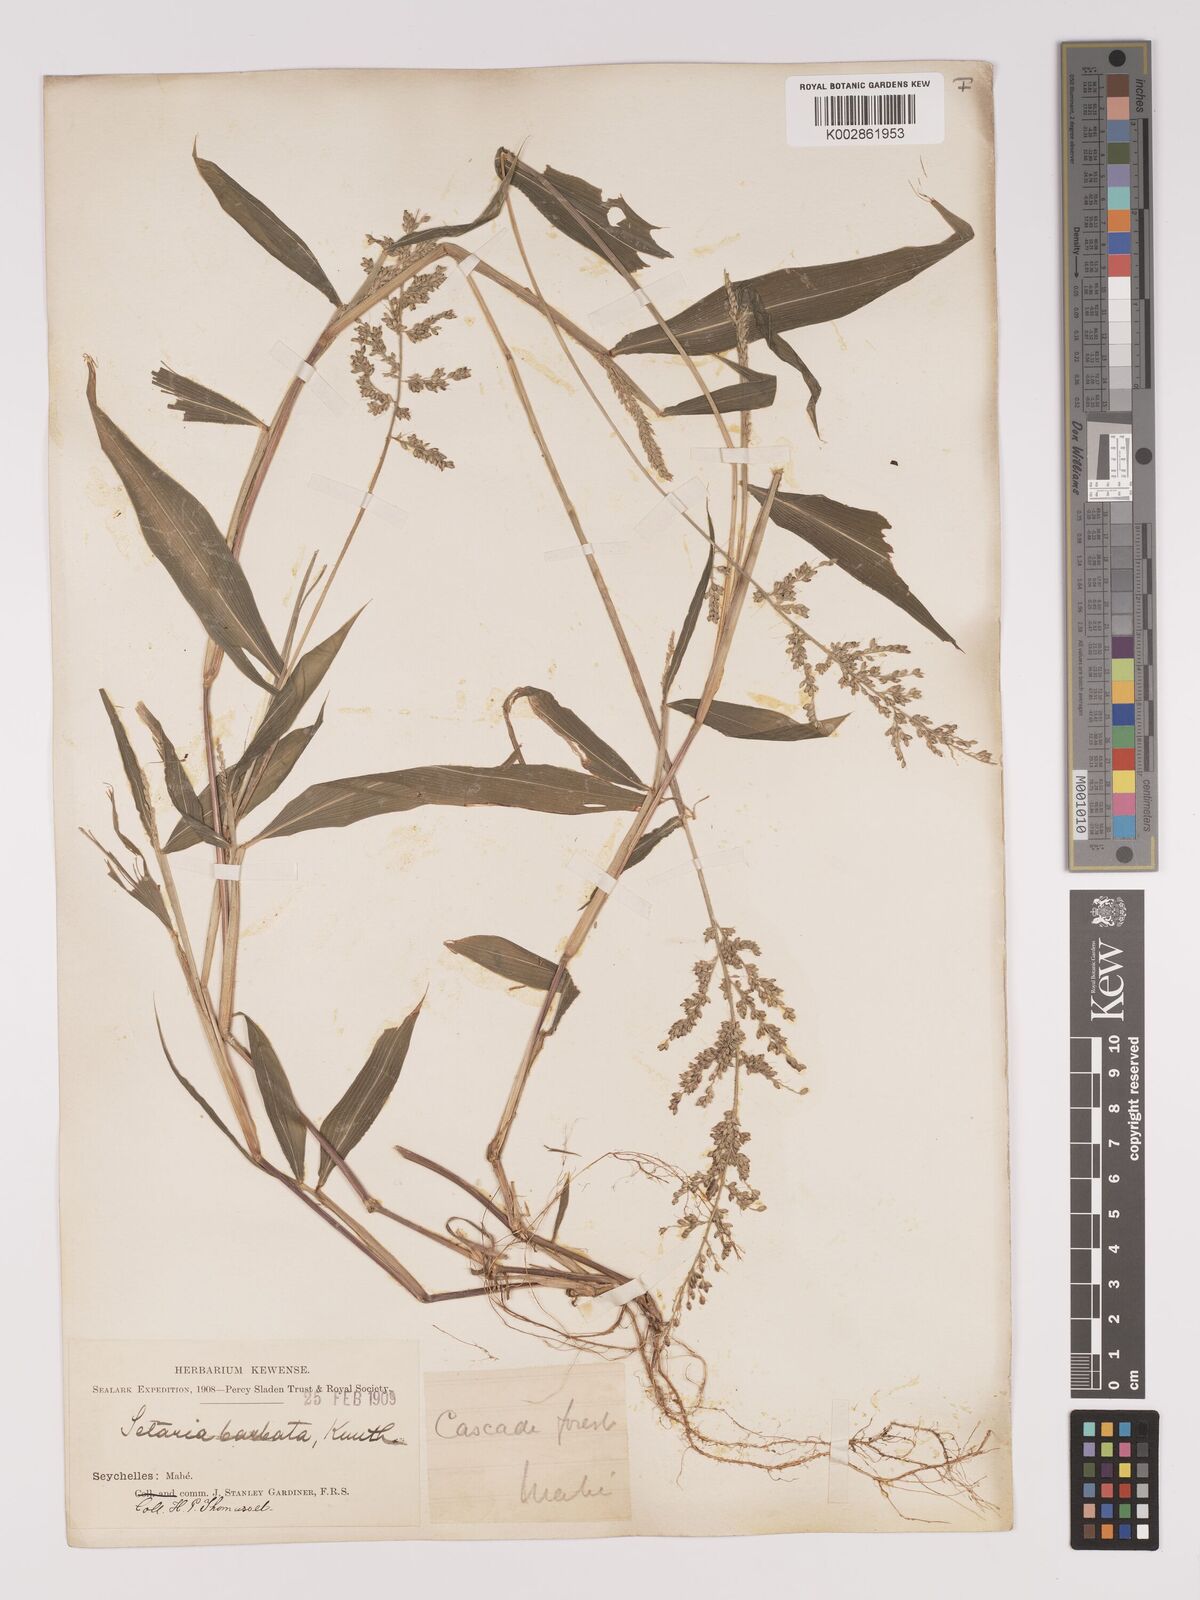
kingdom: Plantae
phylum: Tracheophyta
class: Liliopsida
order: Poales
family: Poaceae
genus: Setaria
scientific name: Setaria barbata
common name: East indian bristlegrass
